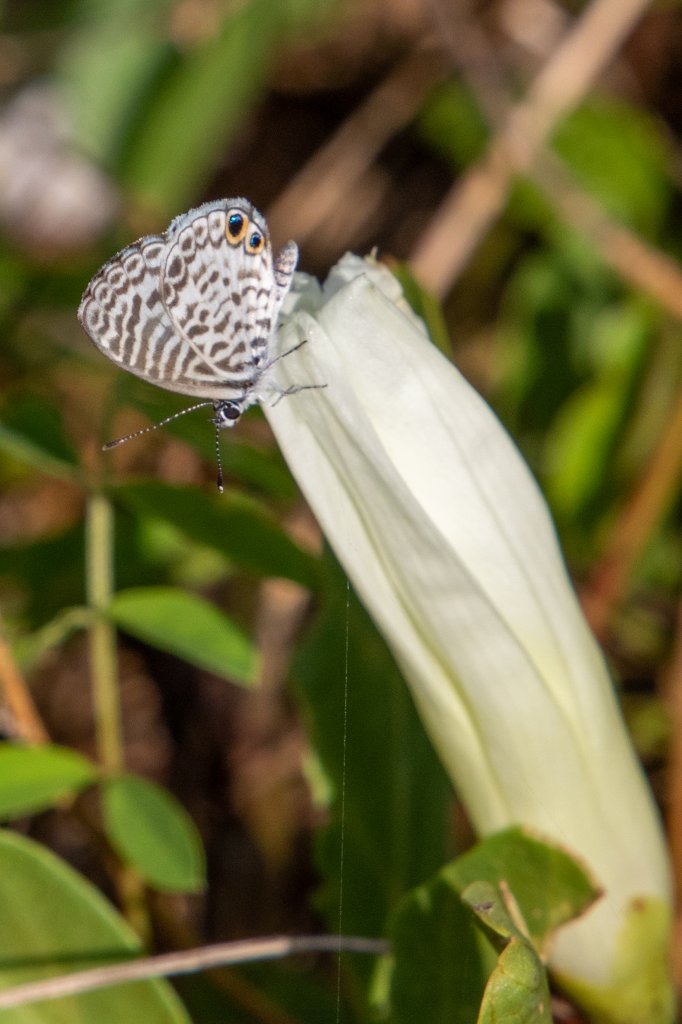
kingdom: Animalia
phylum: Arthropoda
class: Insecta
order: Lepidoptera
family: Lycaenidae
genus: Leptotes
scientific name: Leptotes cassius
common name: Cassius Blue
